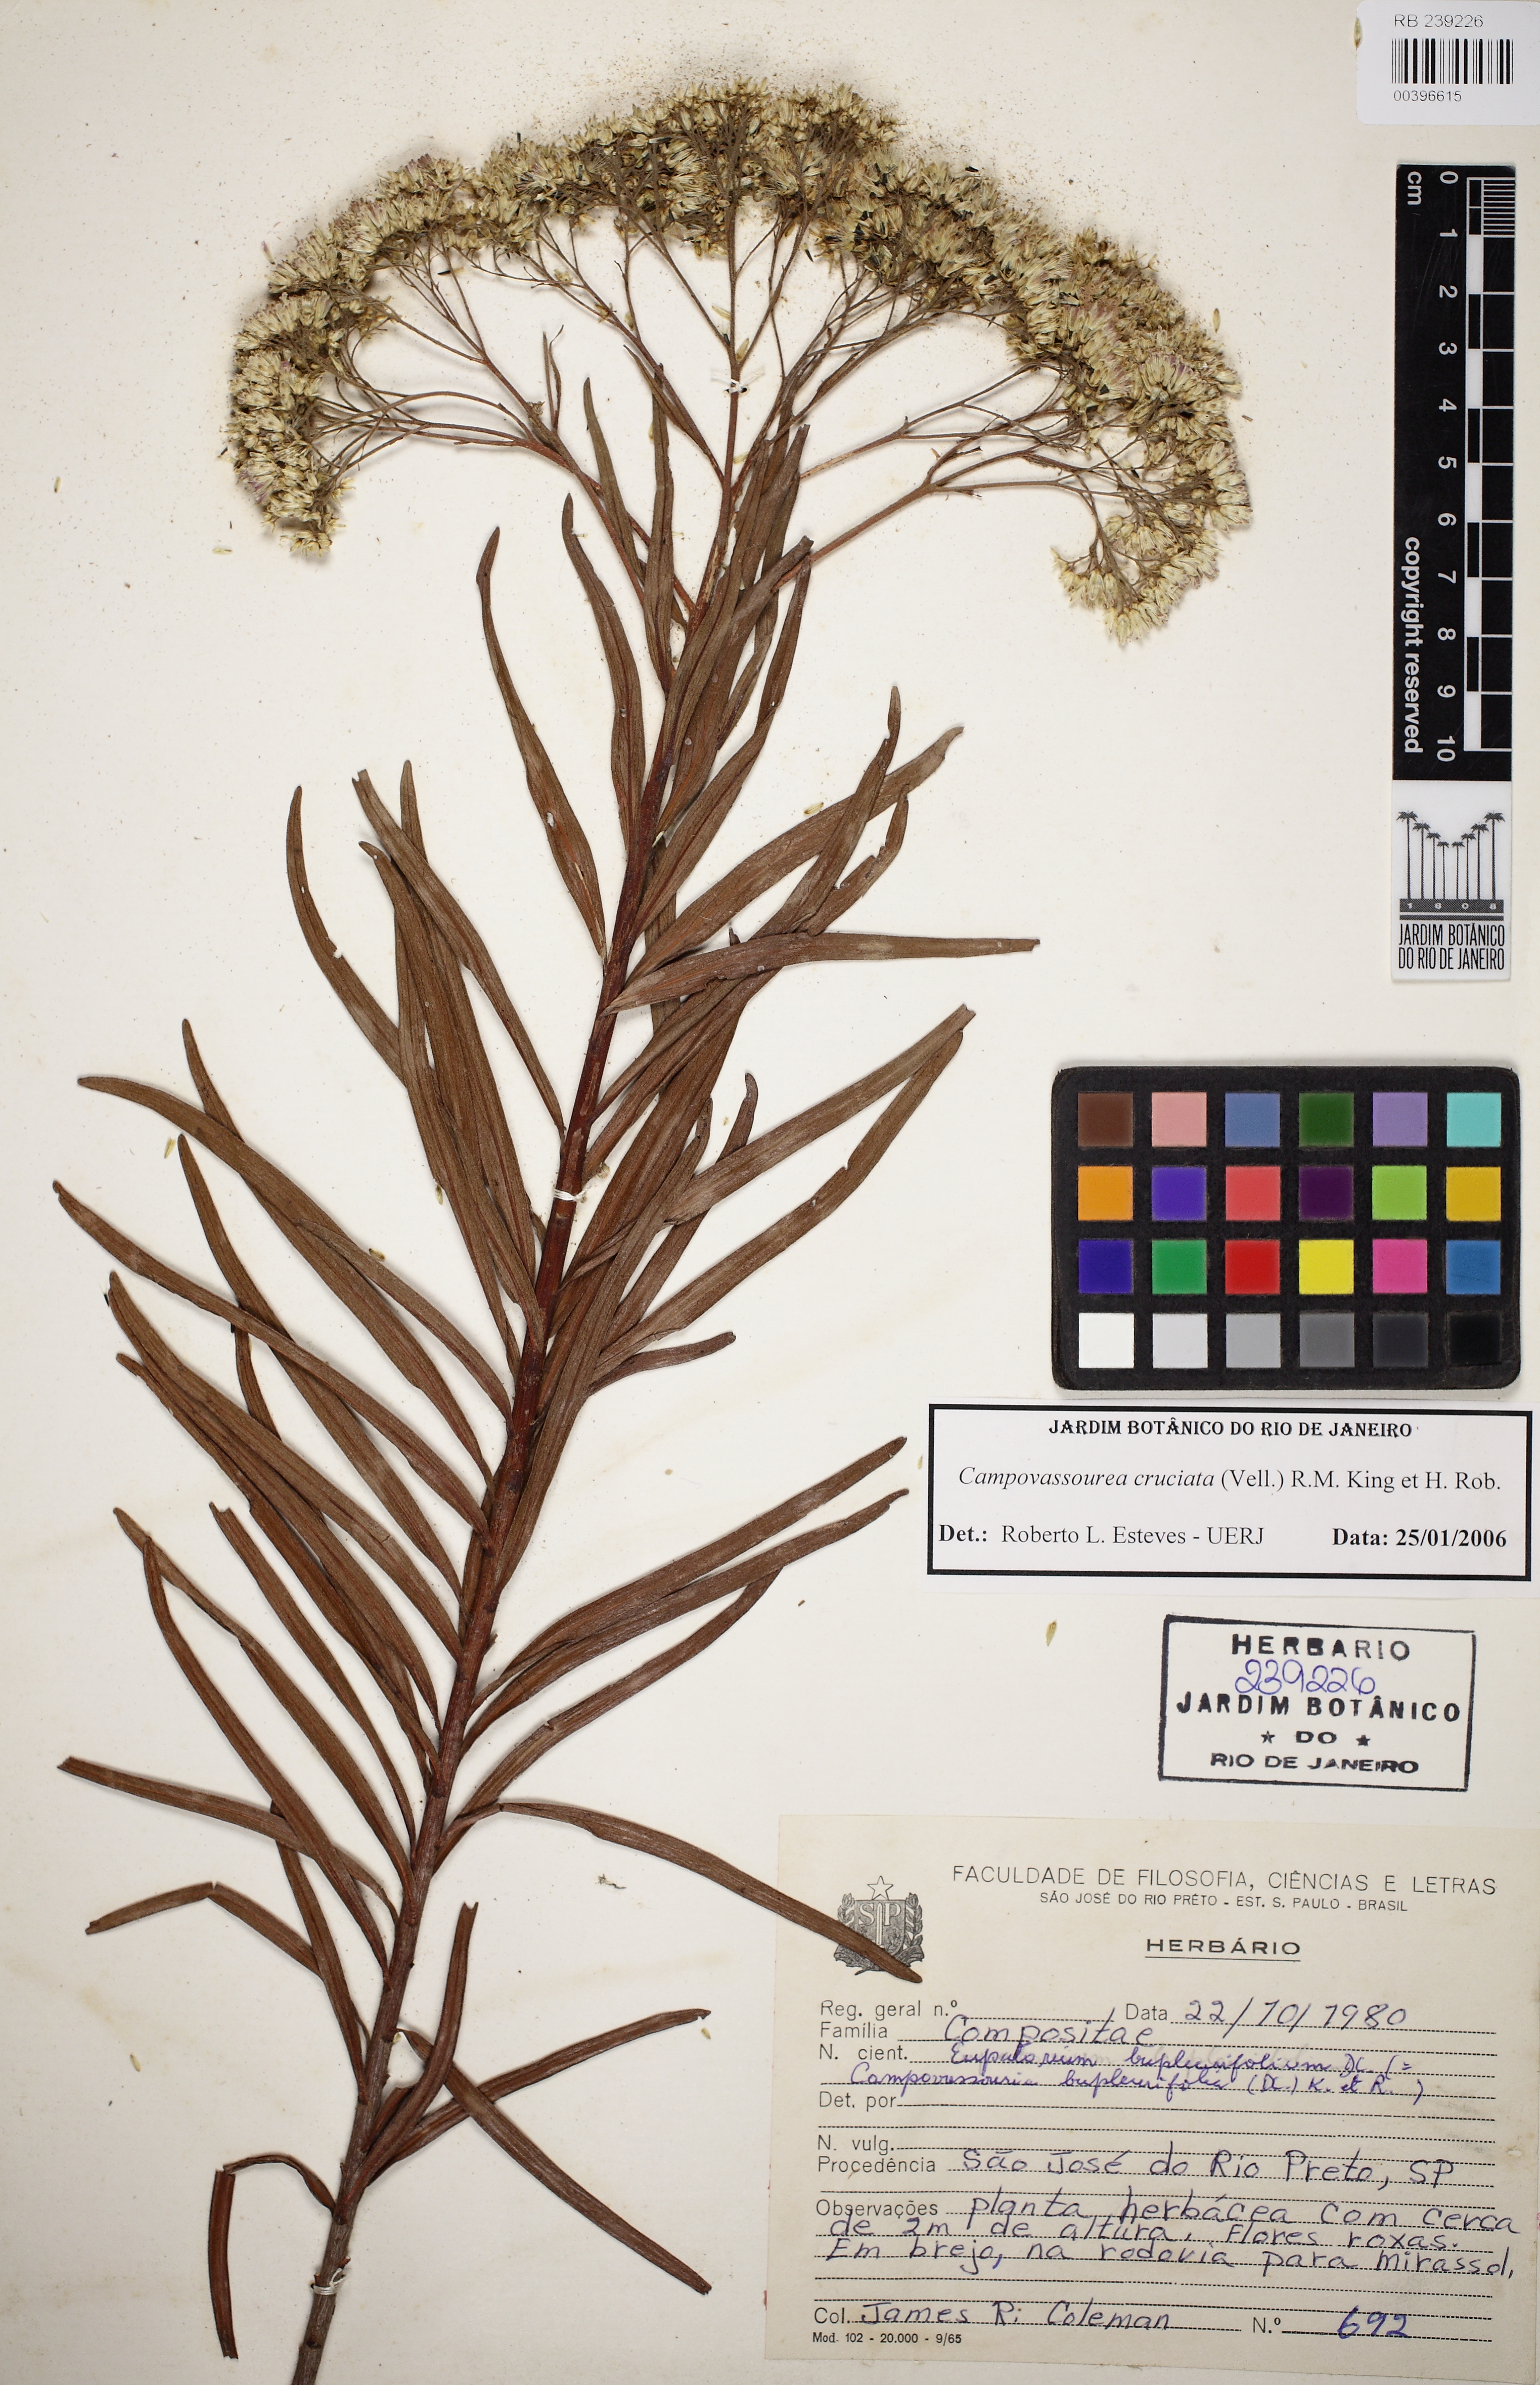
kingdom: Plantae
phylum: Tracheophyta
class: Magnoliopsida
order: Asterales
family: Asteraceae
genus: Campovassouria
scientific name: Campovassouria cruciata
